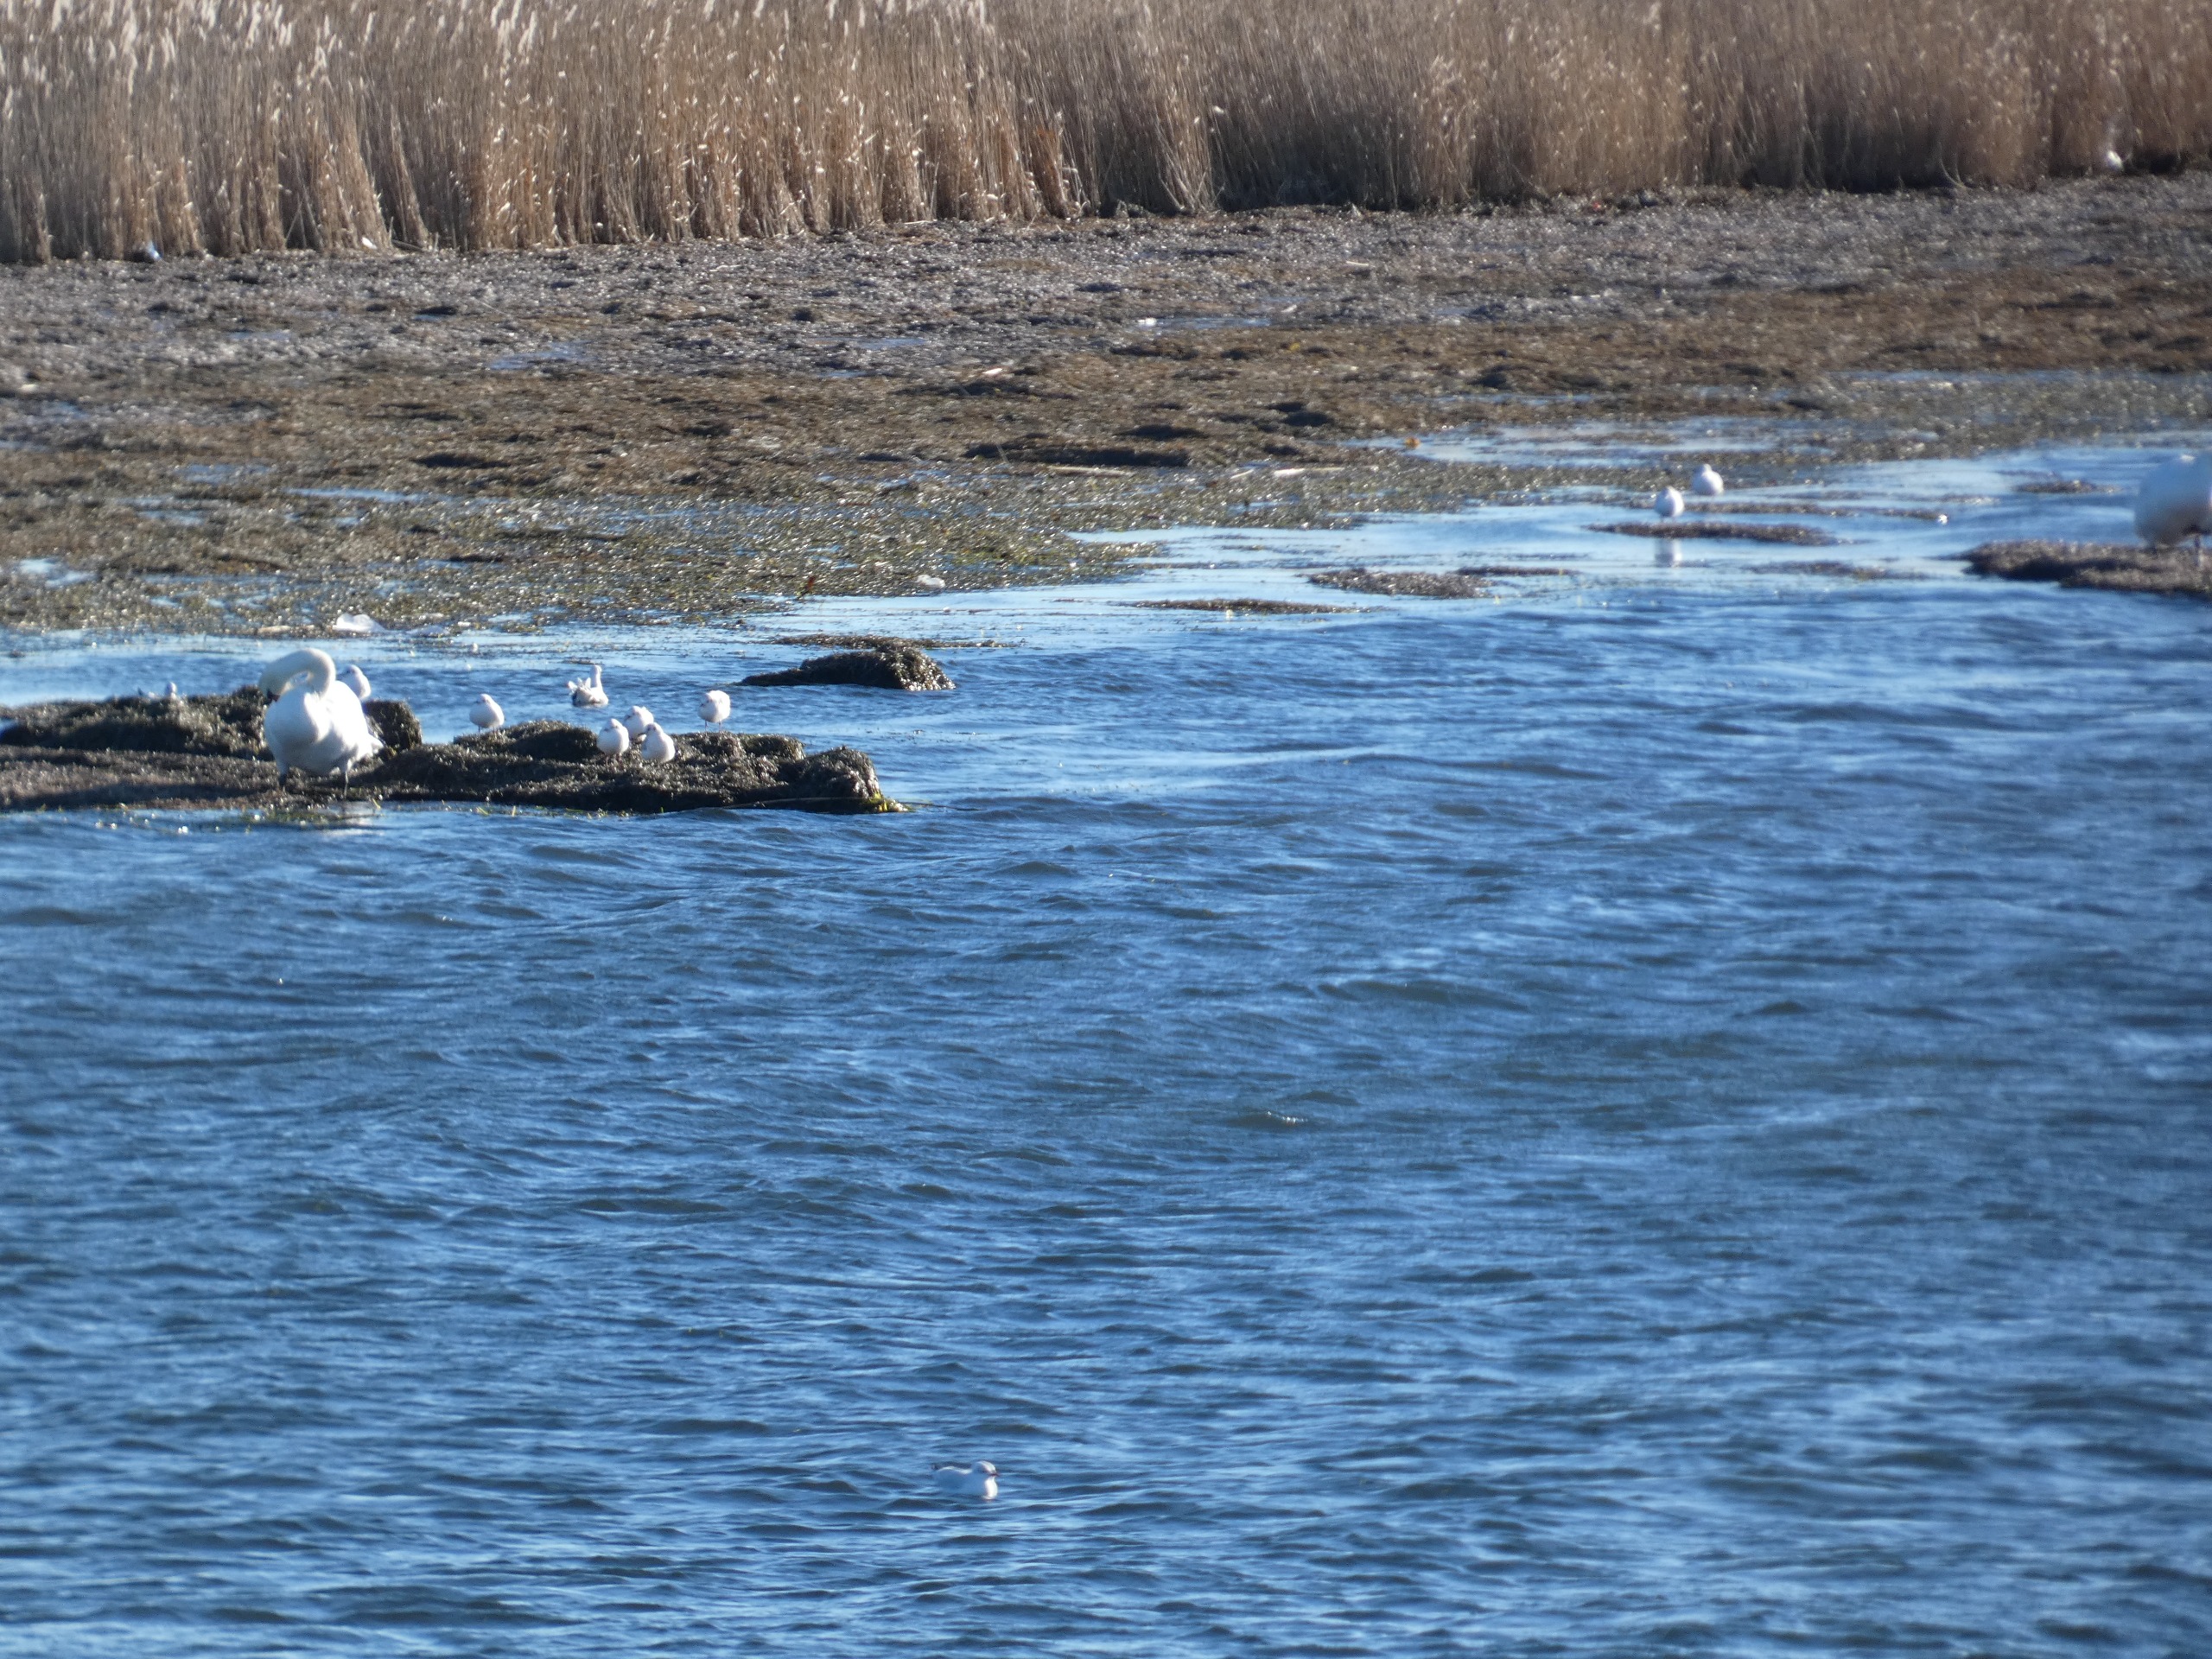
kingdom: Animalia
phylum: Chordata
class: Aves
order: Anseriformes
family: Anatidae
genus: Cygnus
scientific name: Cygnus olor
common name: Knopsvane
